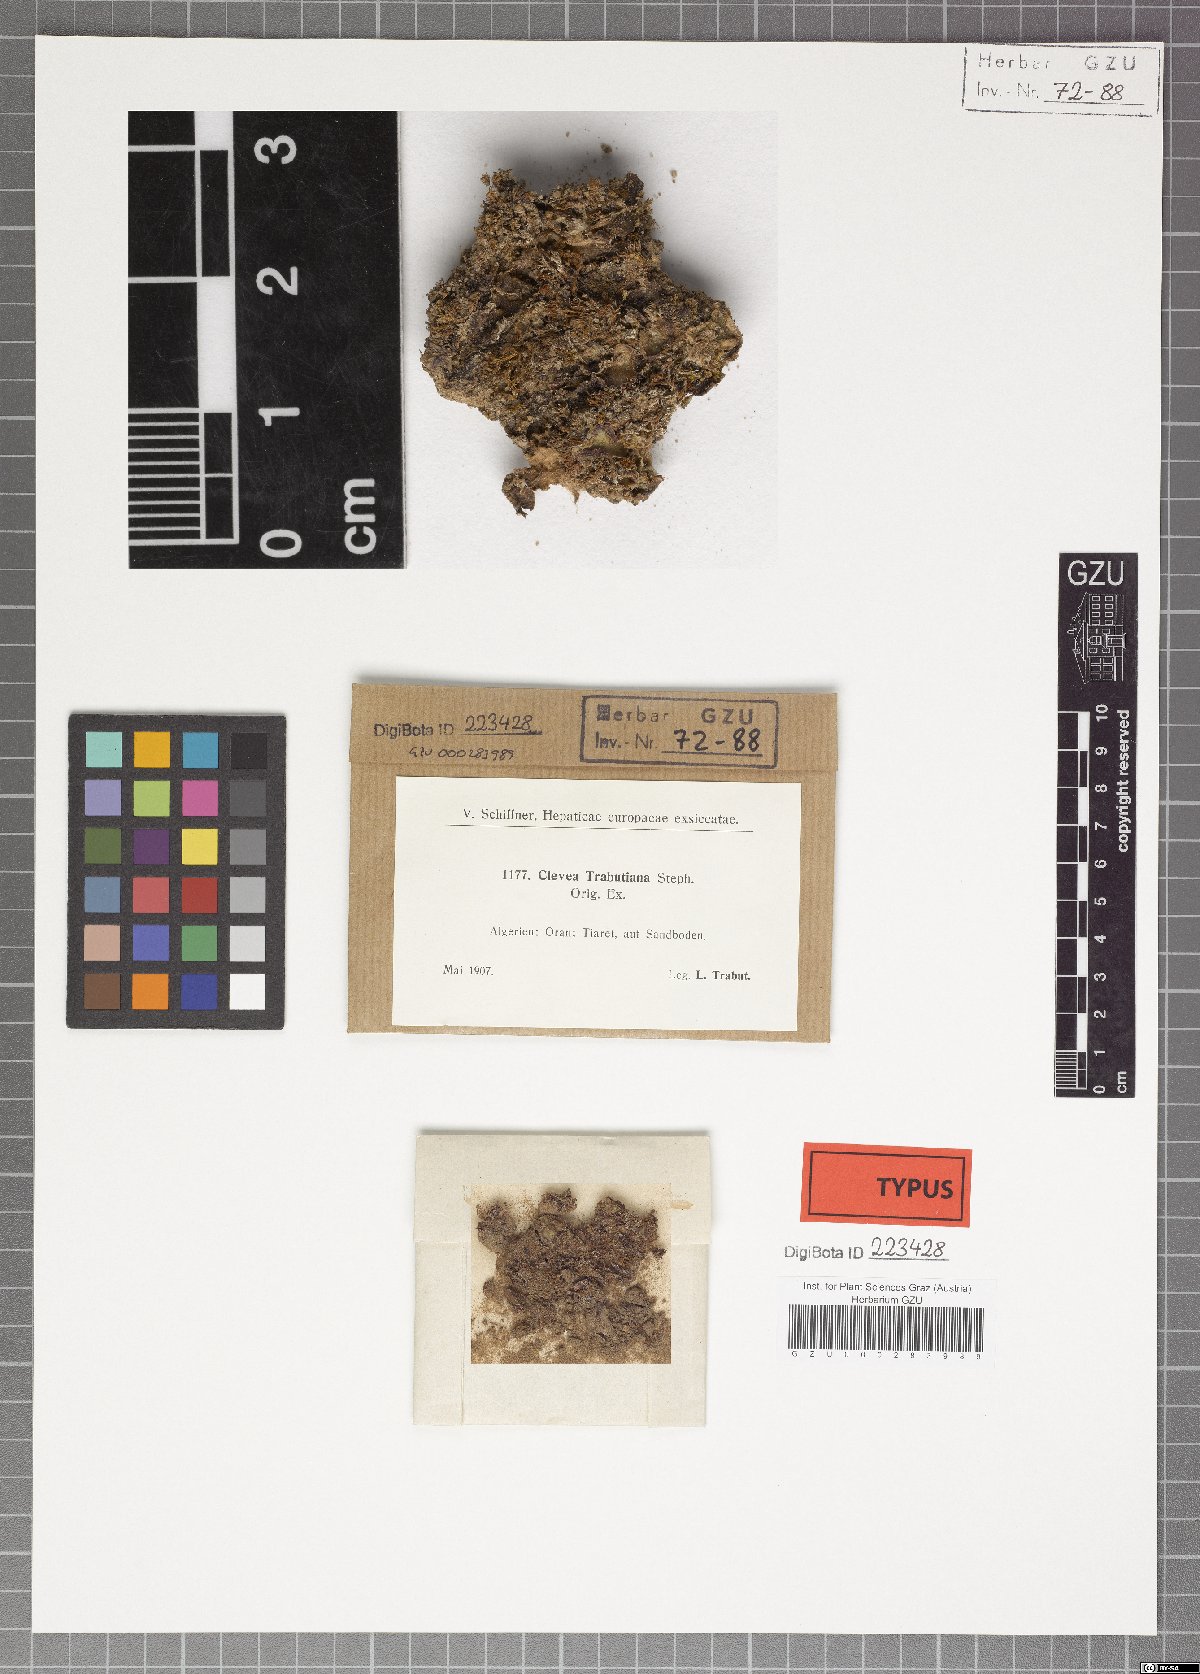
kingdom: Plantae
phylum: Marchantiophyta
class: Marchantiopsida
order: Marchantiales
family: Cleveaceae
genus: Clevea
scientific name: Clevea hyalina
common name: Hyaline liverwort
